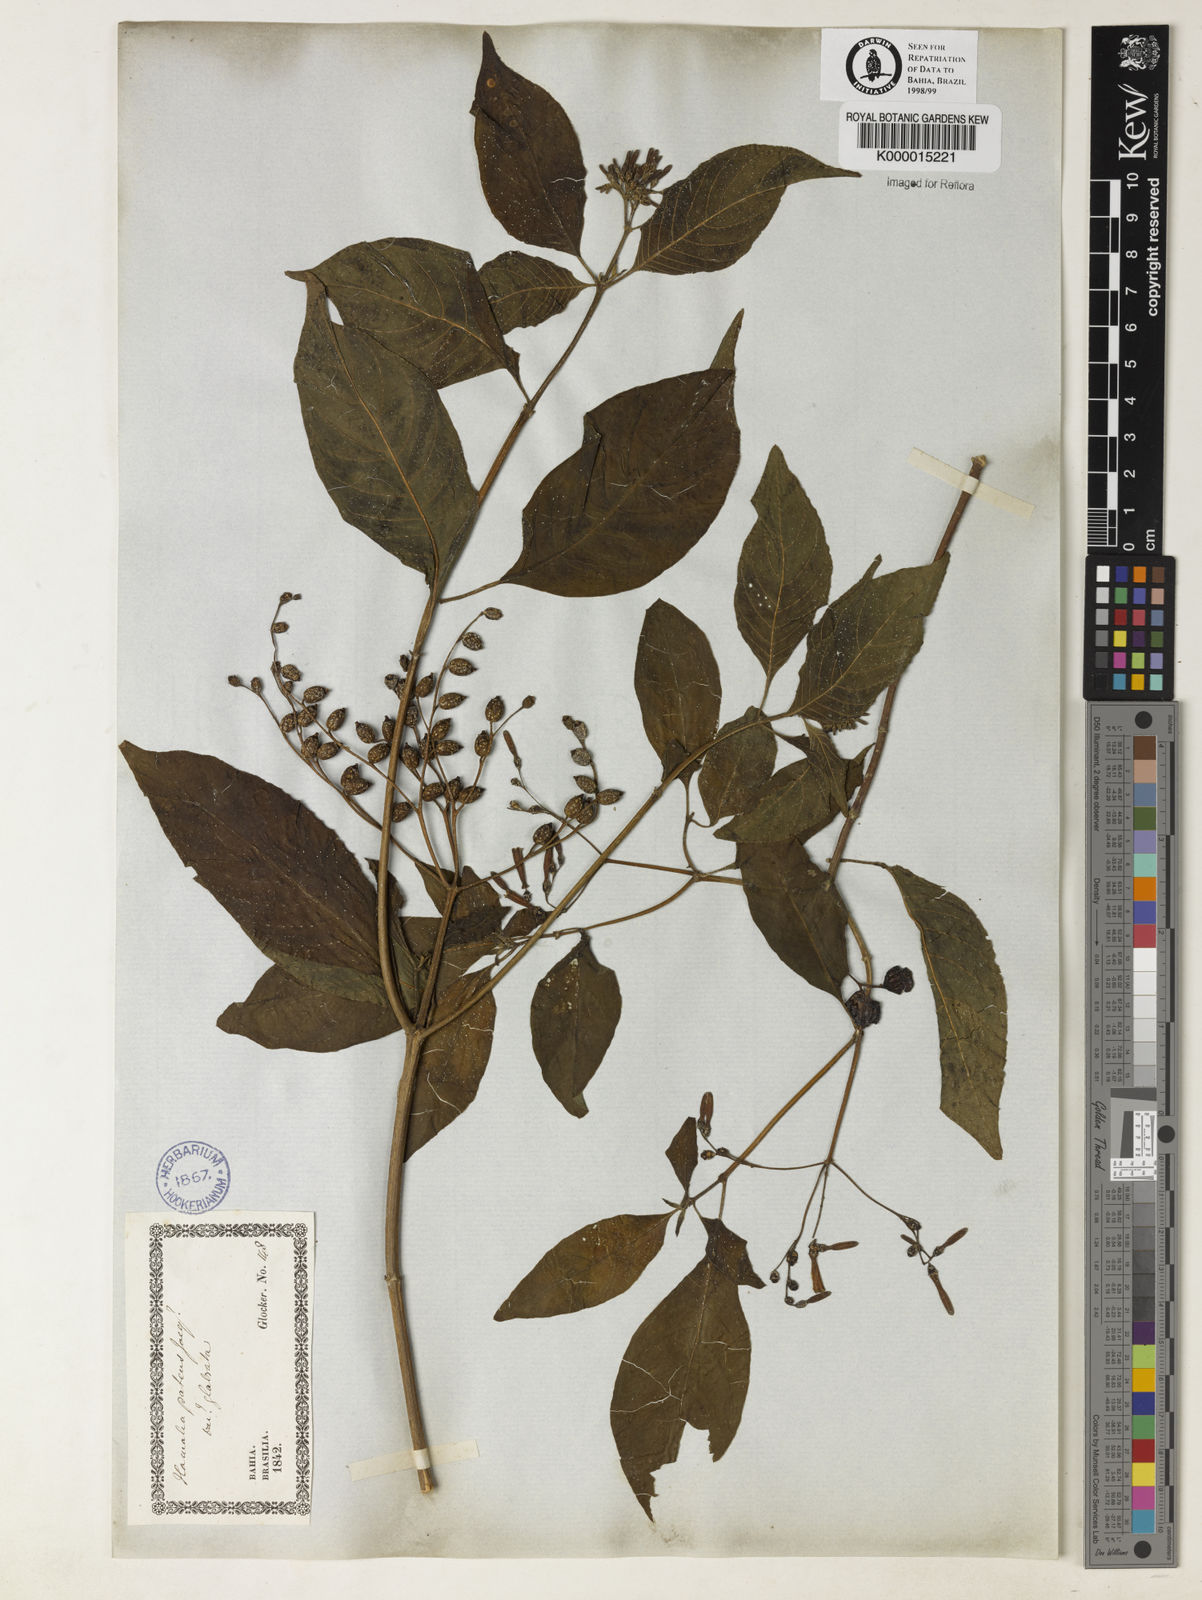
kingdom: Plantae
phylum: Tracheophyta
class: Magnoliopsida
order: Gentianales
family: Rubiaceae
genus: Hamelia
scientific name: Hamelia patens
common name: Redhead
